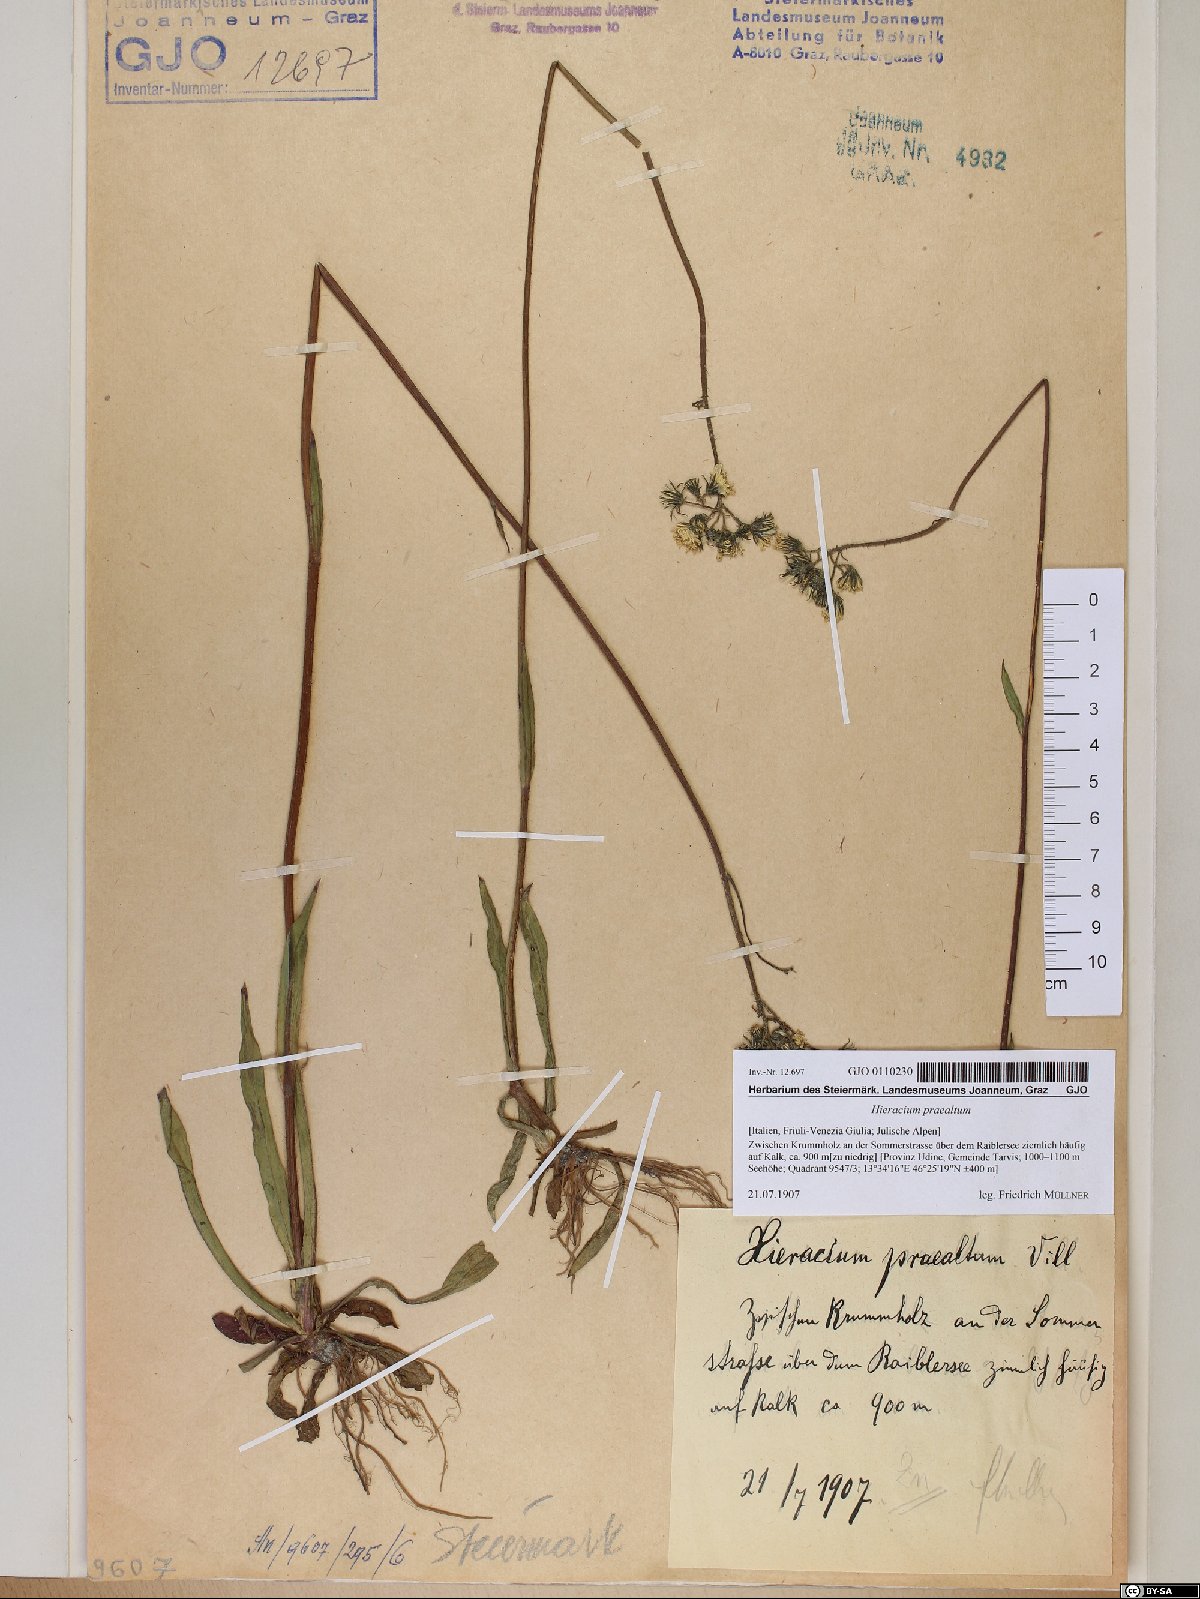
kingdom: Plantae
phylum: Tracheophyta
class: Magnoliopsida
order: Asterales
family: Asteraceae
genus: Pilosella
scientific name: Pilosella piloselloides
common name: Glaucous king-devil
